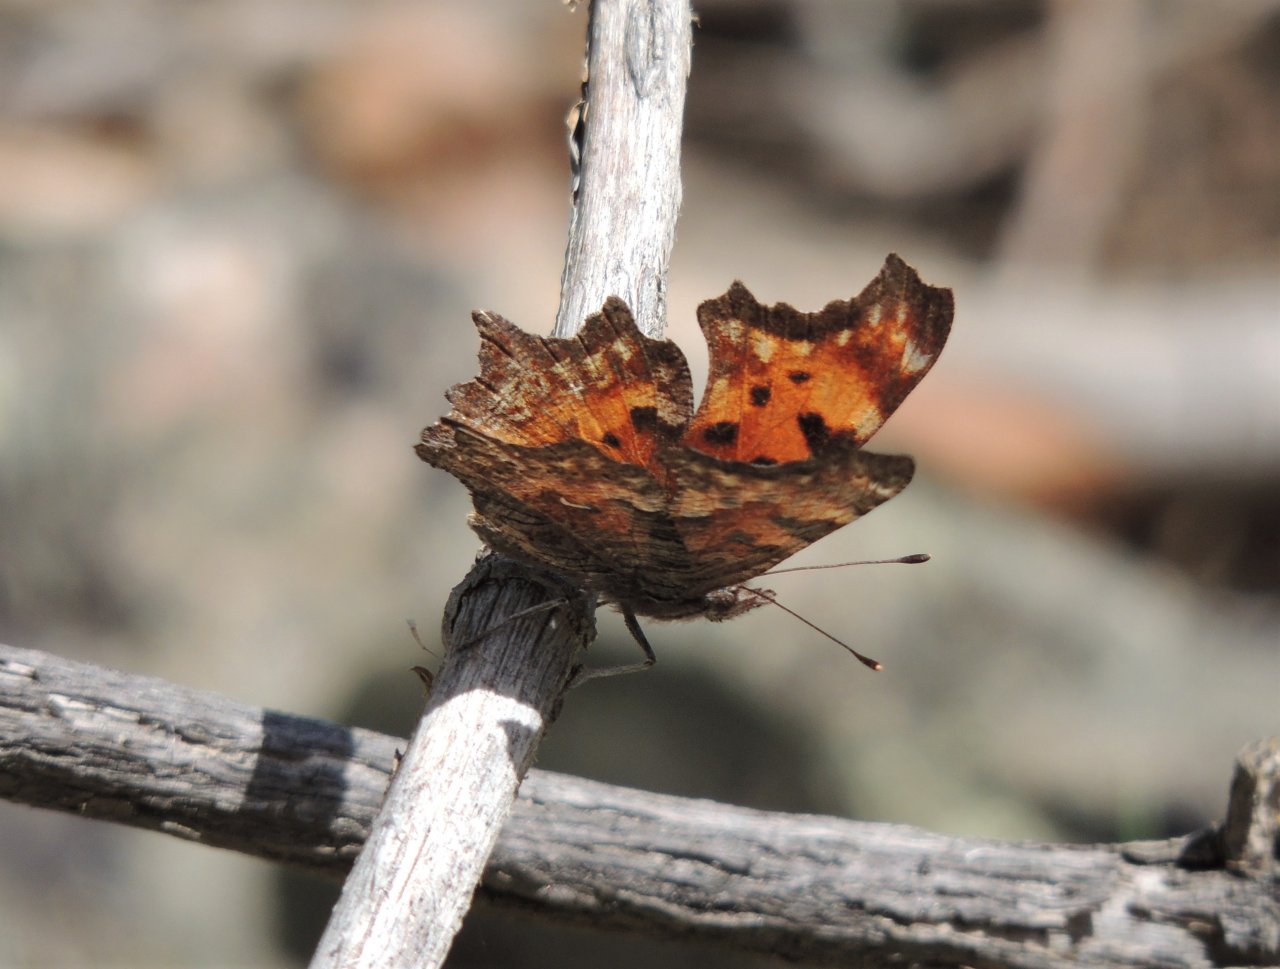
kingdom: Animalia
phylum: Arthropoda
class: Insecta
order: Lepidoptera
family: Nymphalidae
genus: Polygonia
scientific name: Polygonia gracilis
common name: Hoary Comma
